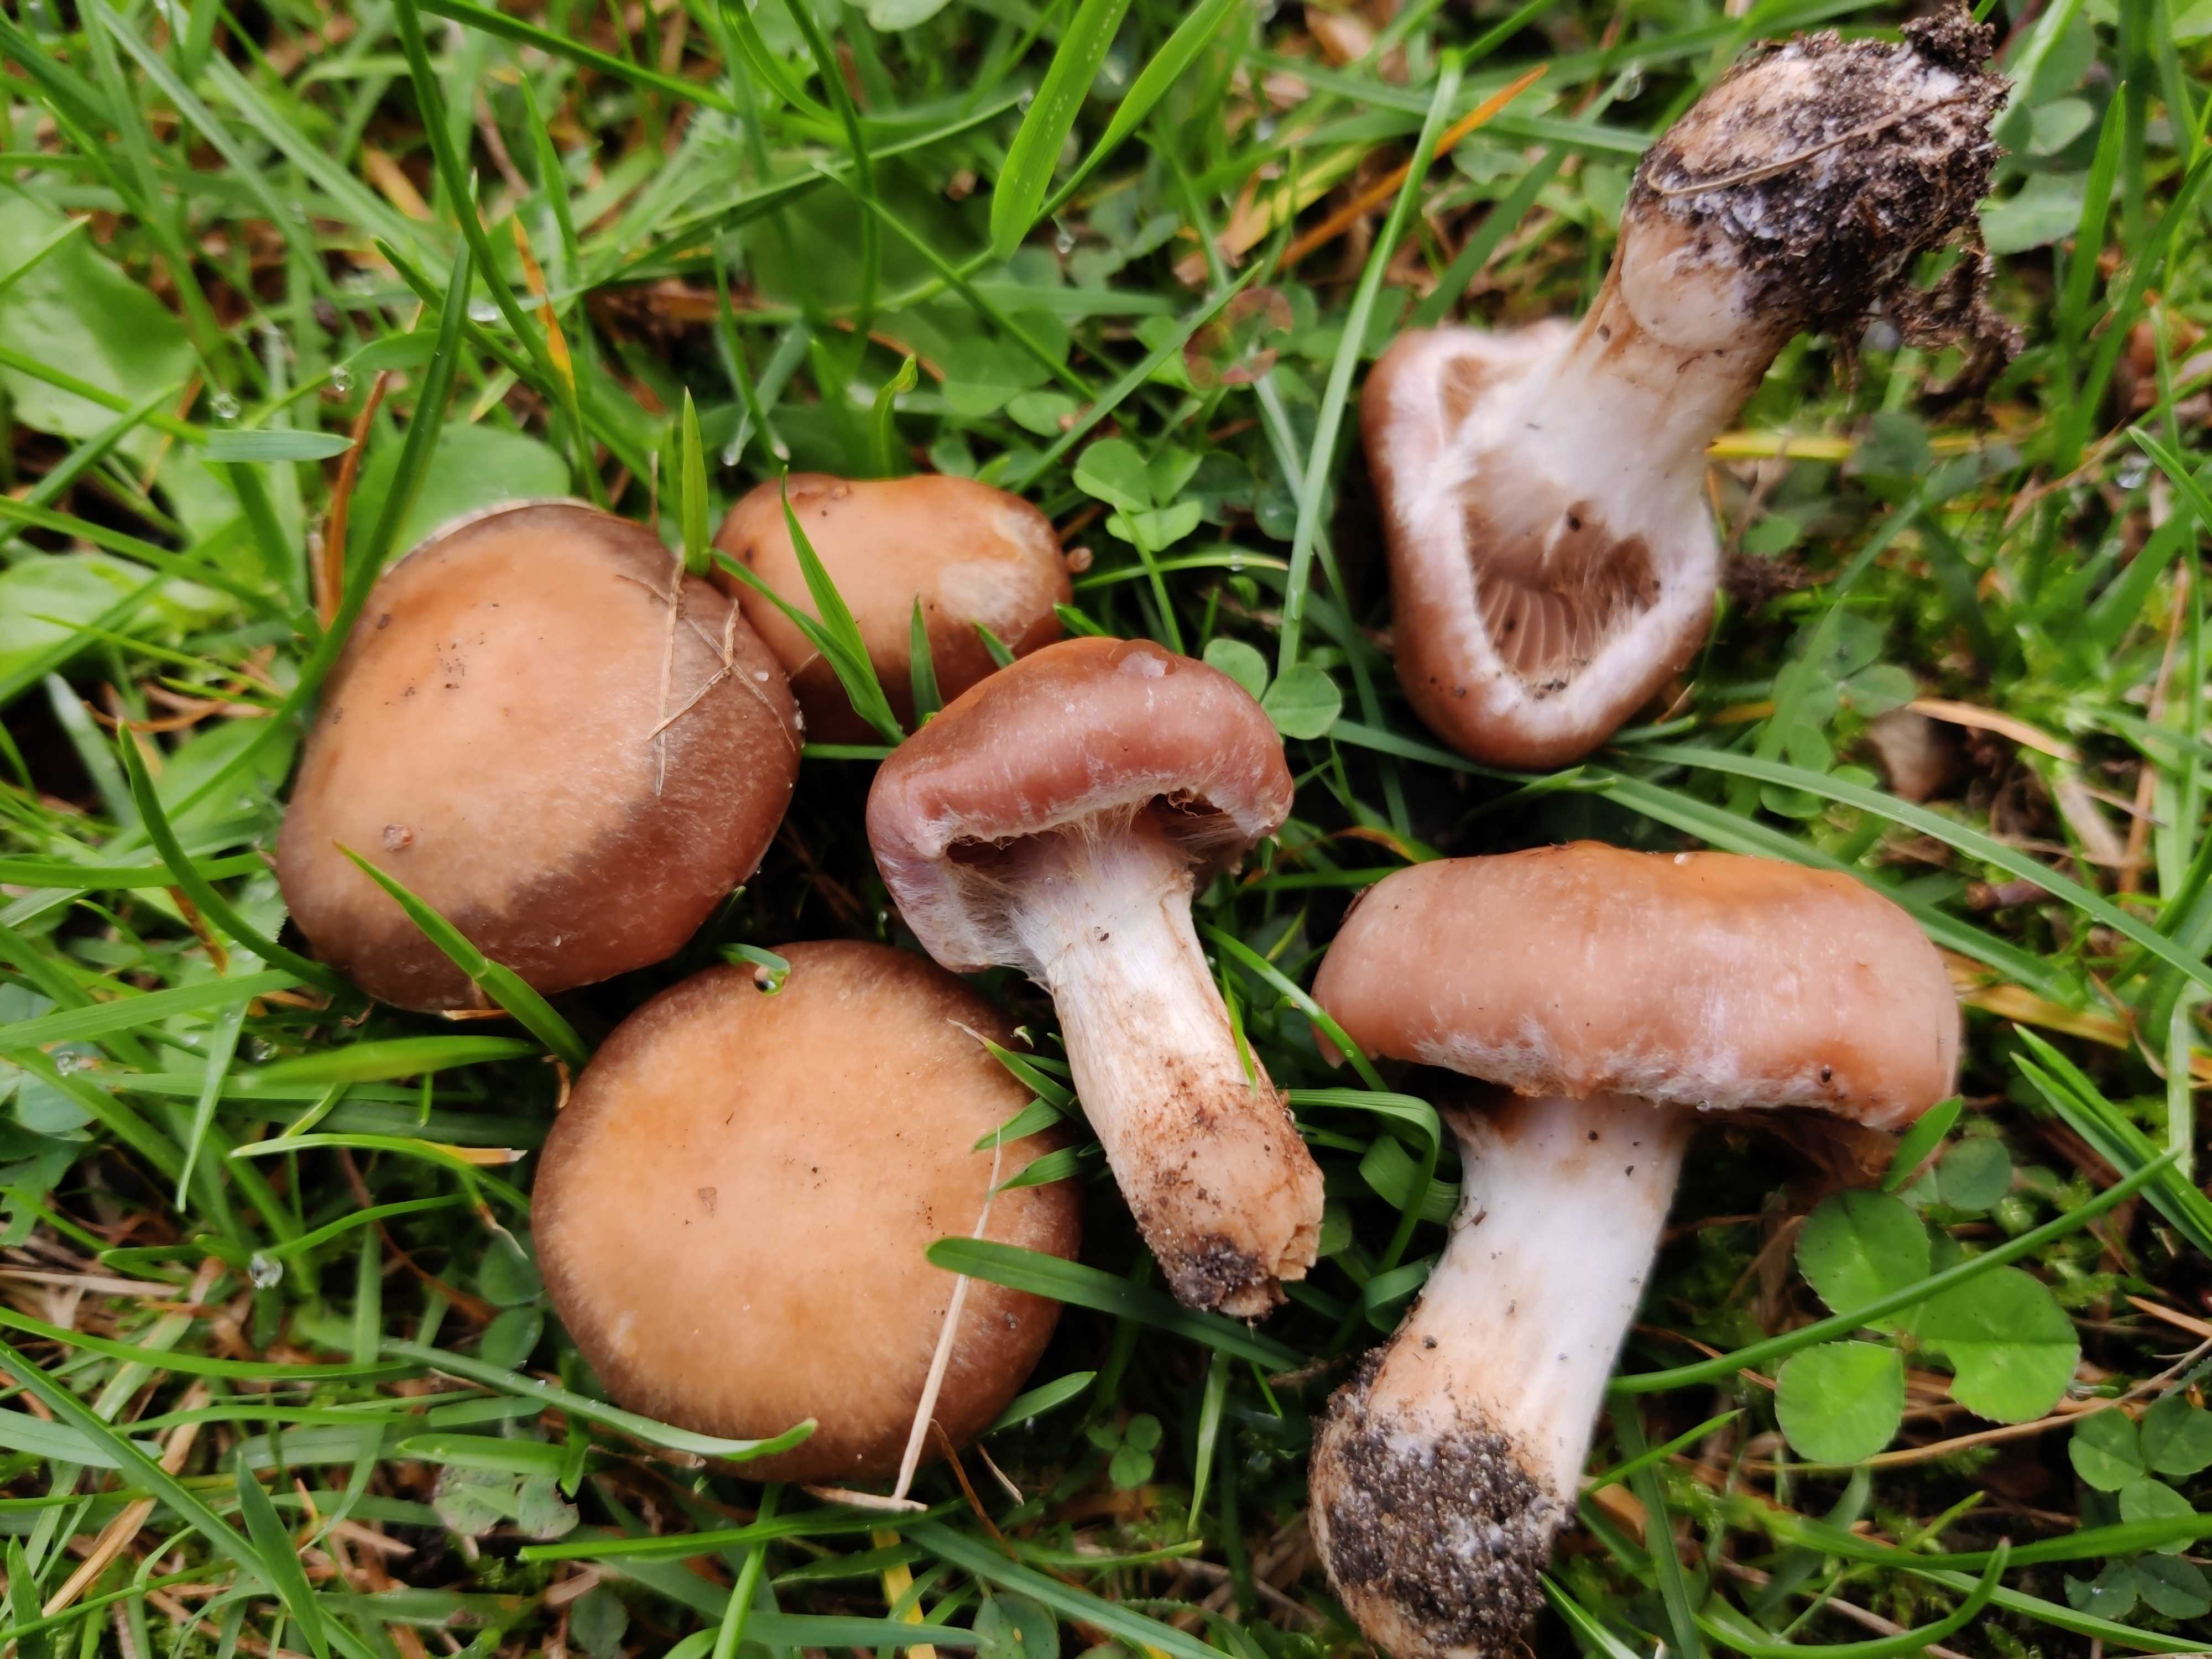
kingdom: Fungi
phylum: Basidiomycota
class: Agaricomycetes
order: Agaricales
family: Cortinariaceae
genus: Cortinarius
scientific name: Cortinarius lucorum
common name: aspe-slørhat
